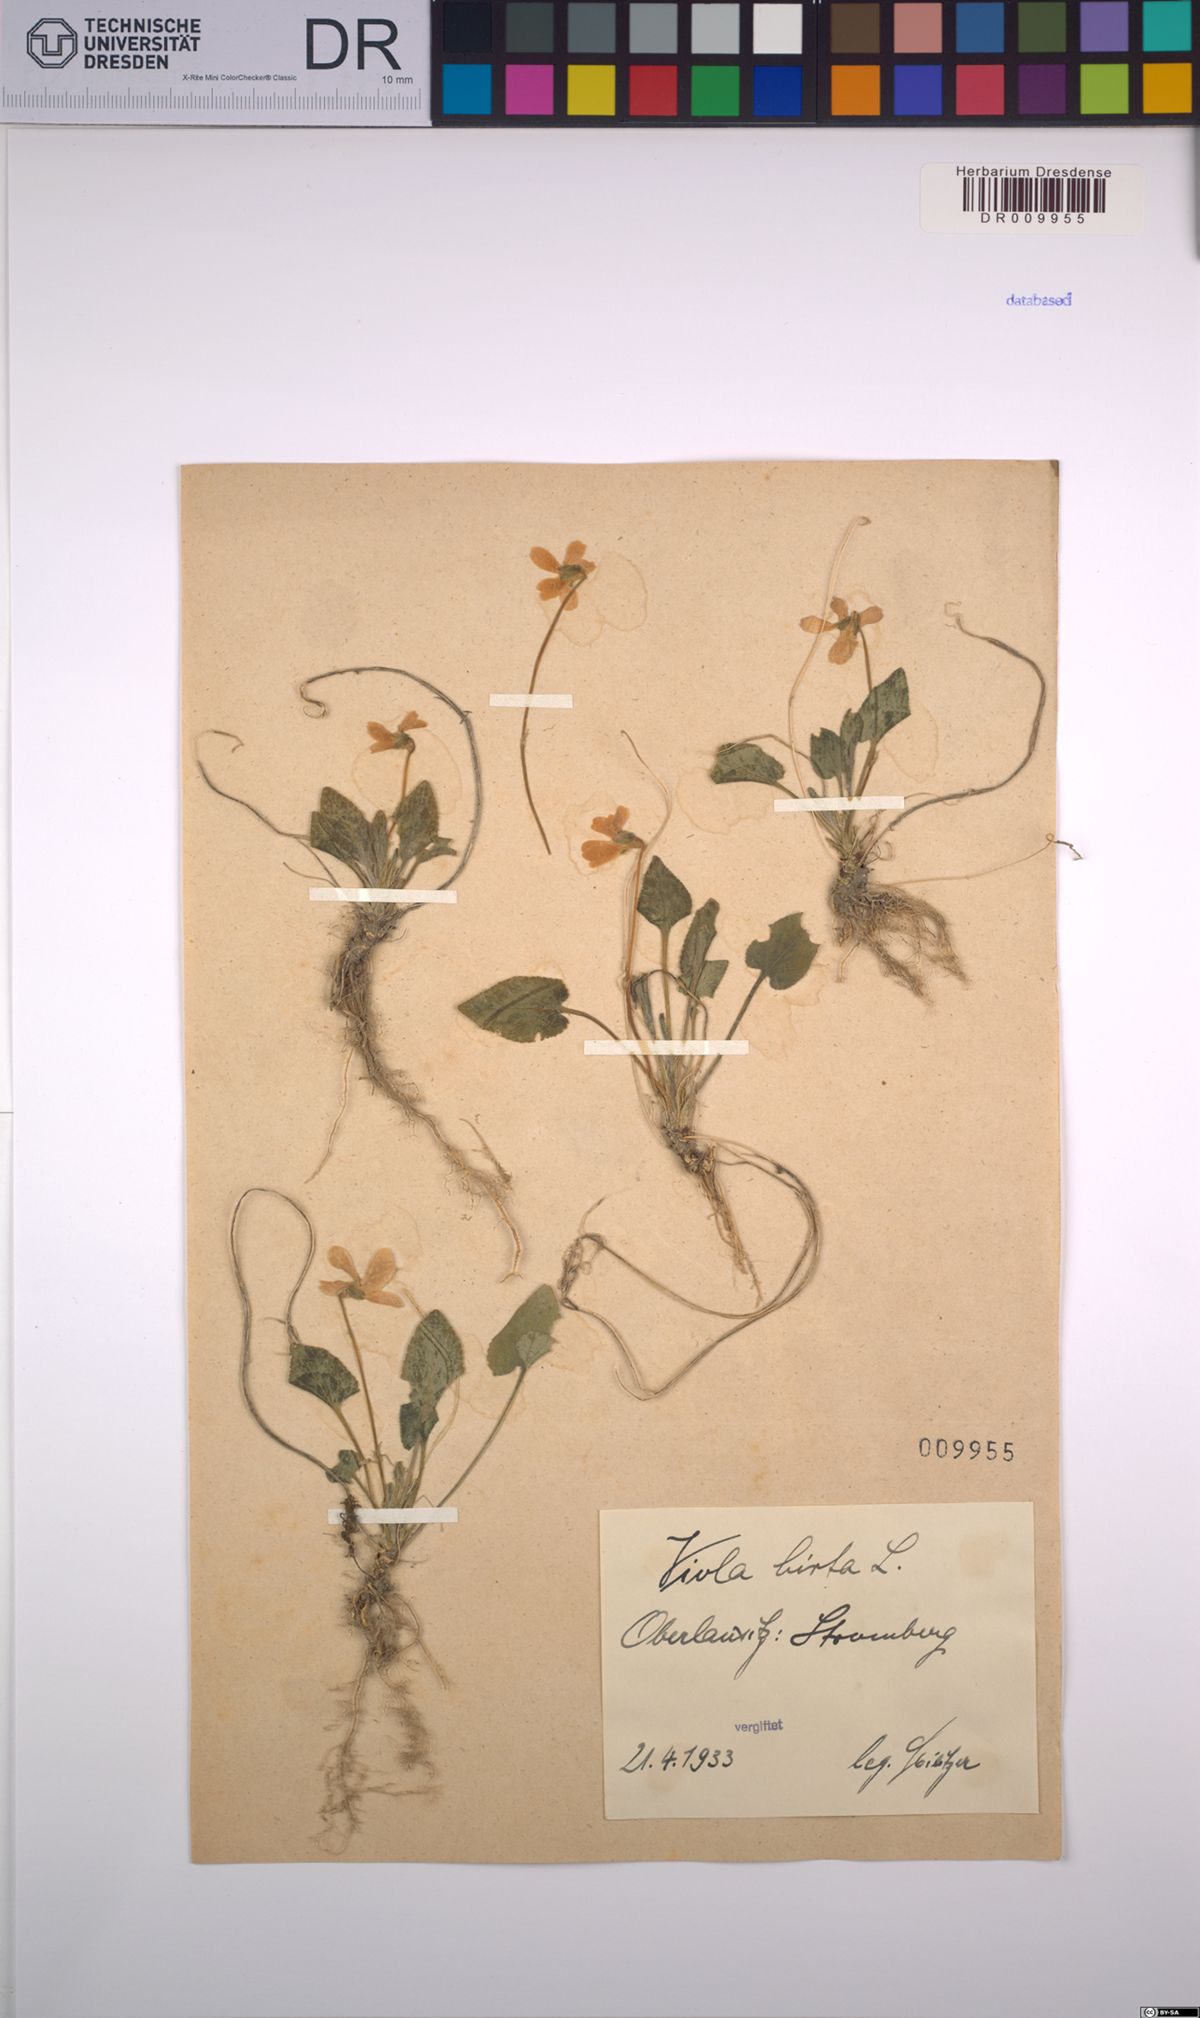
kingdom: Plantae
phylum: Tracheophyta
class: Magnoliopsida
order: Malpighiales
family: Violaceae
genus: Viola
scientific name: Viola hirta
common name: Hairy violet
